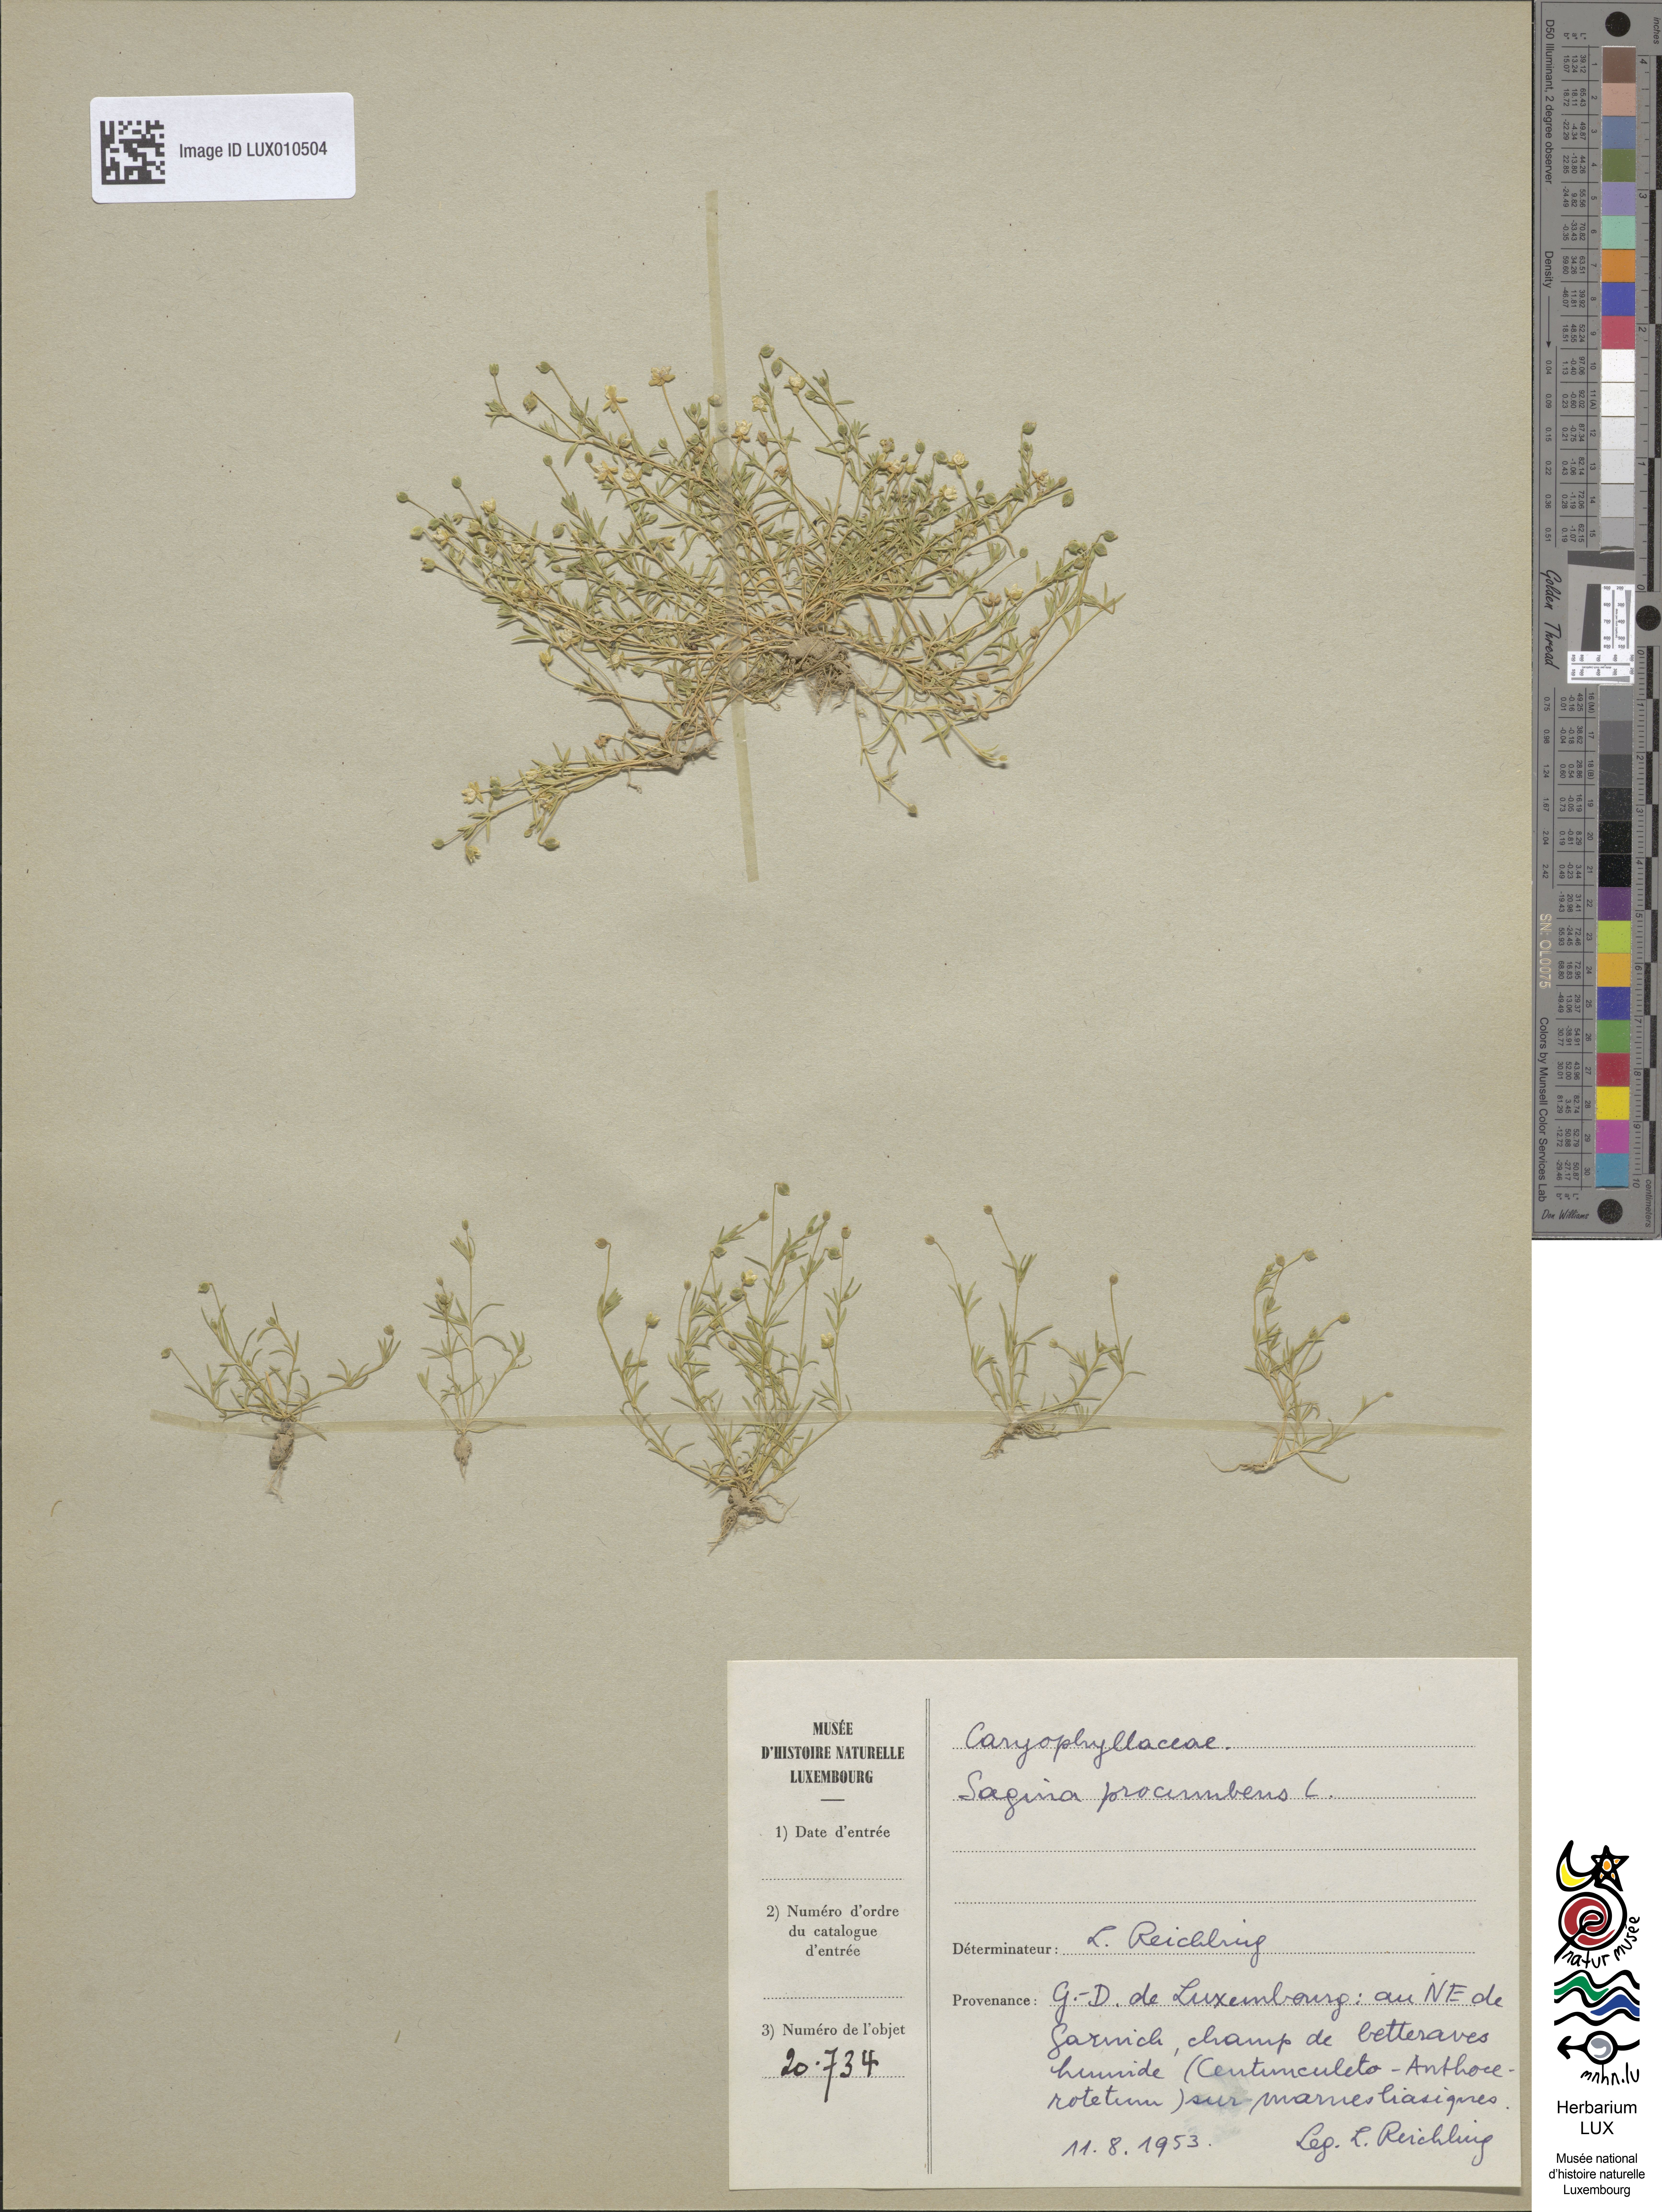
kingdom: Plantae
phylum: Tracheophyta
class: Magnoliopsida
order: Caryophyllales
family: Caryophyllaceae
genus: Sagina
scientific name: Sagina procumbens
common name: Procumbent pearlwort
